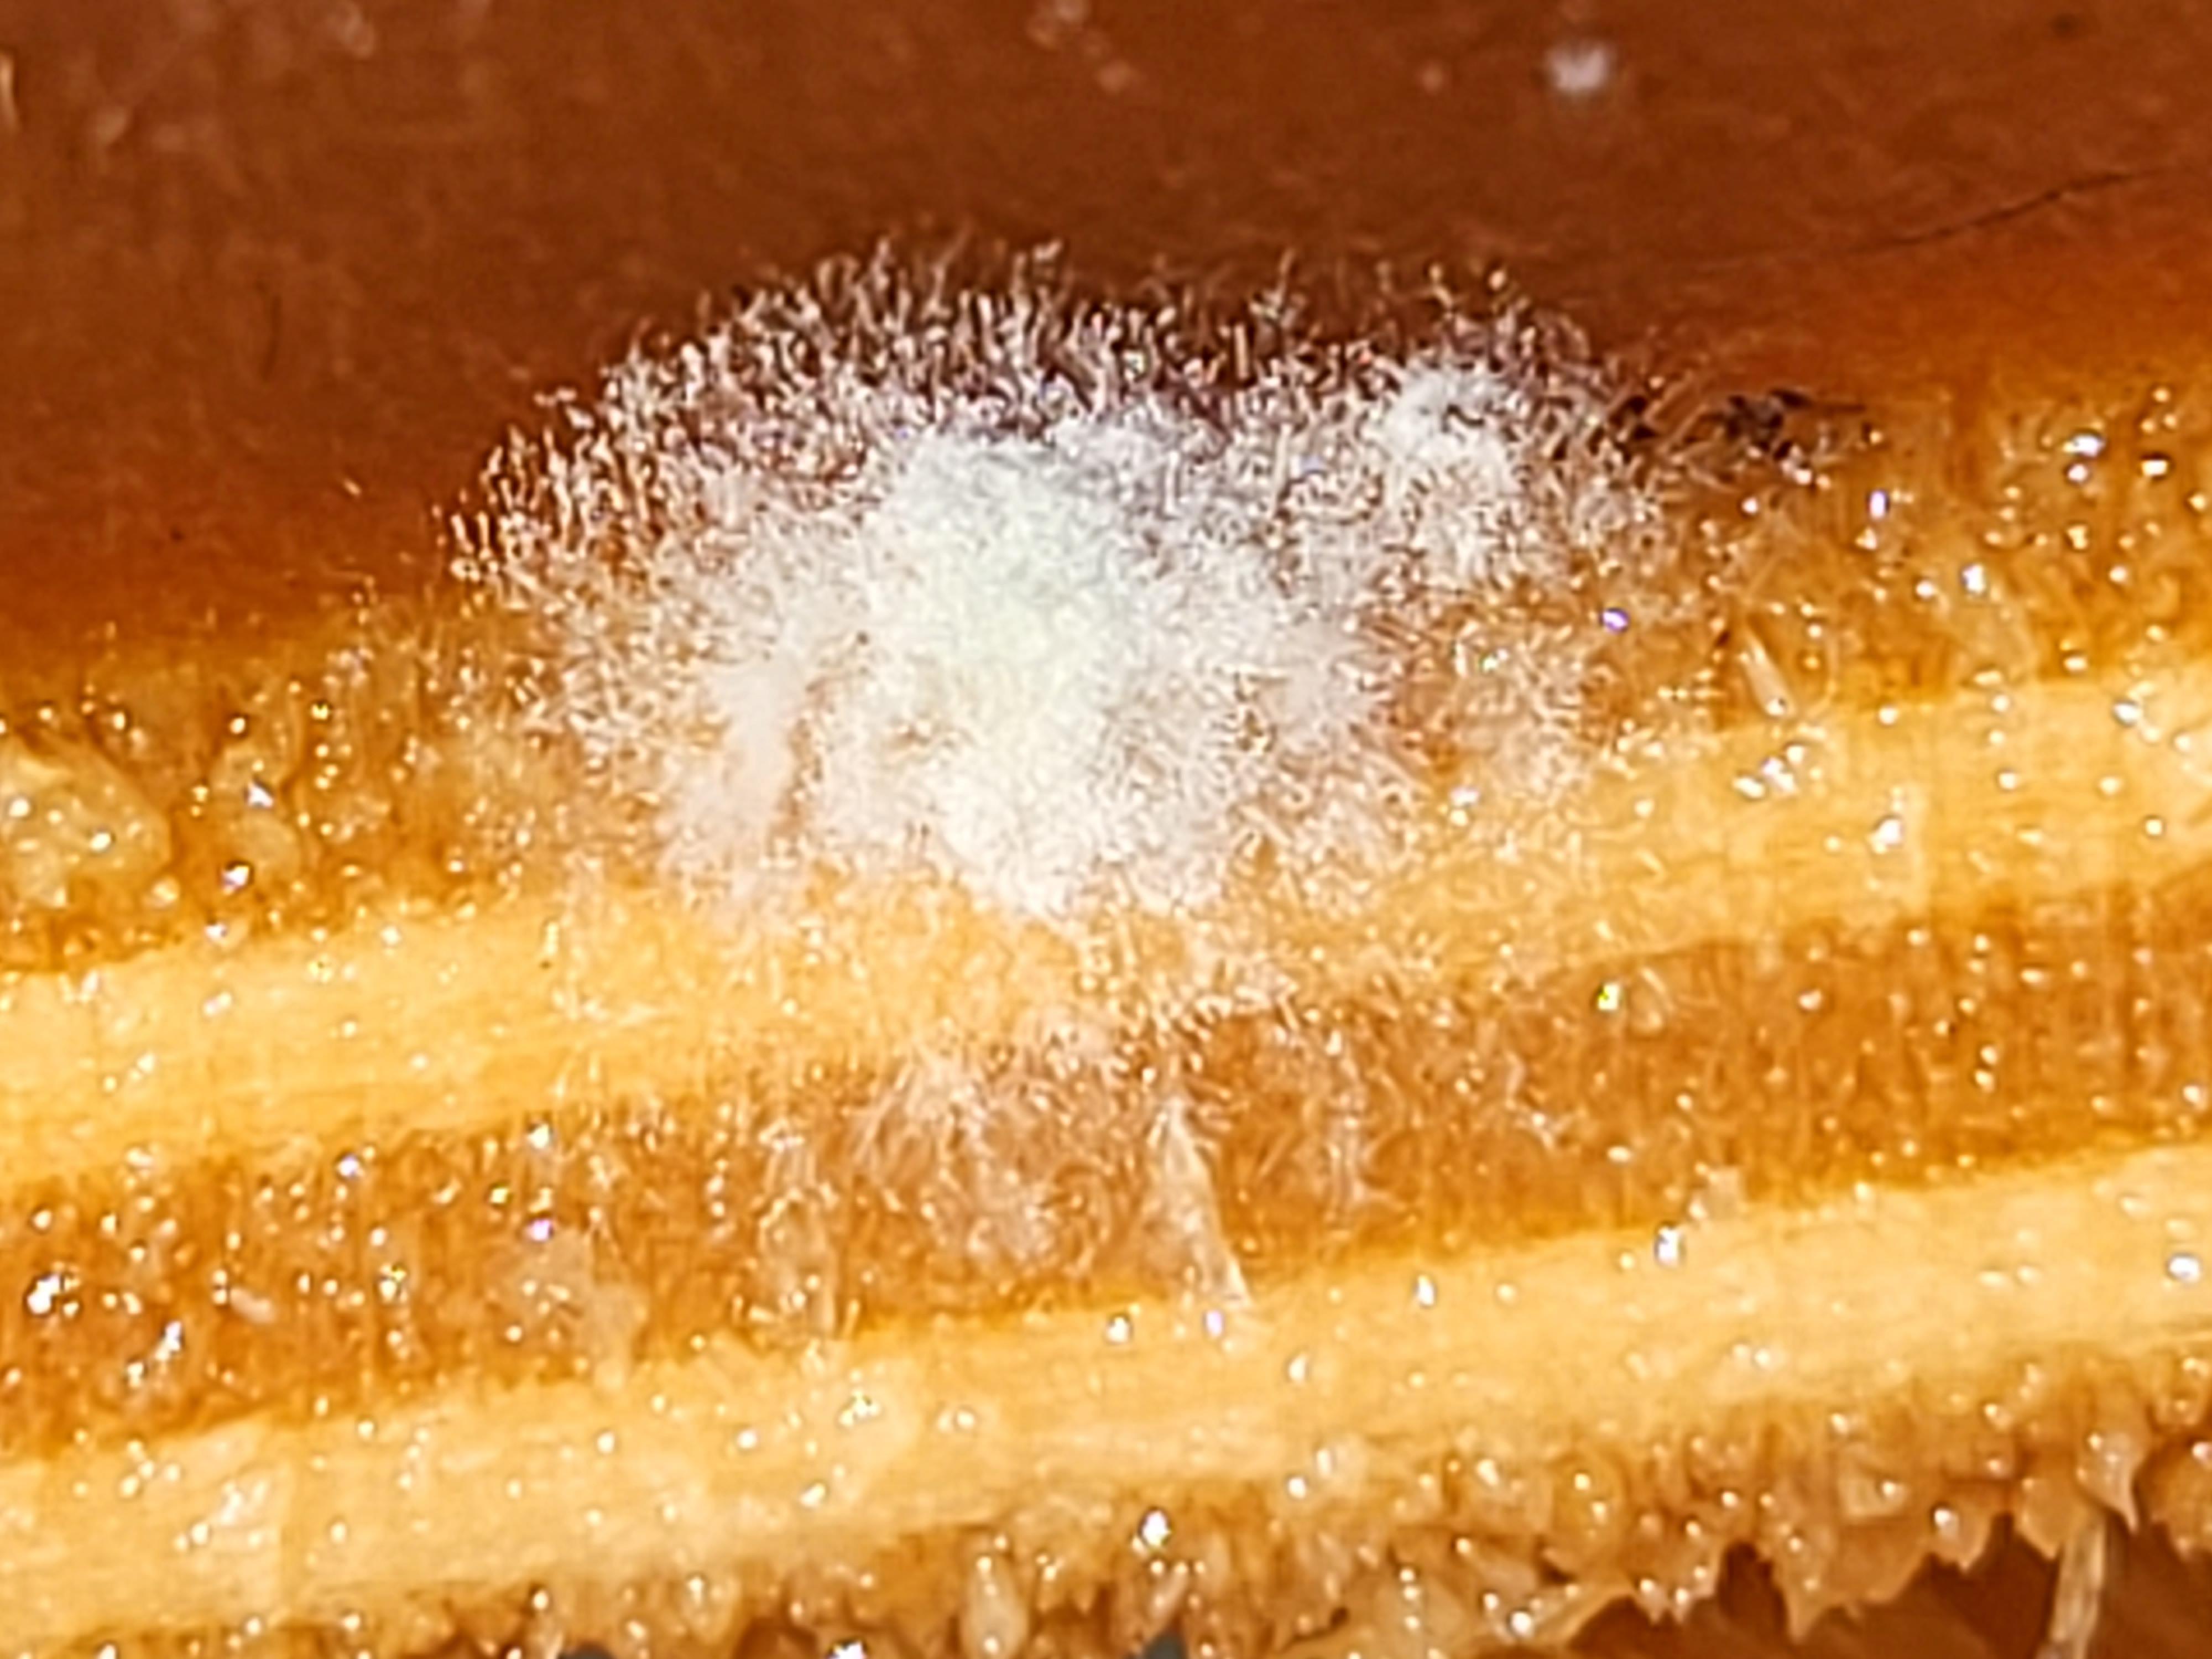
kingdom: Fungi
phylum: Mucoromycota
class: Mucoromycetes
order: Mucorales
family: Mucoraceae
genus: Mucor
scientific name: Mucor
